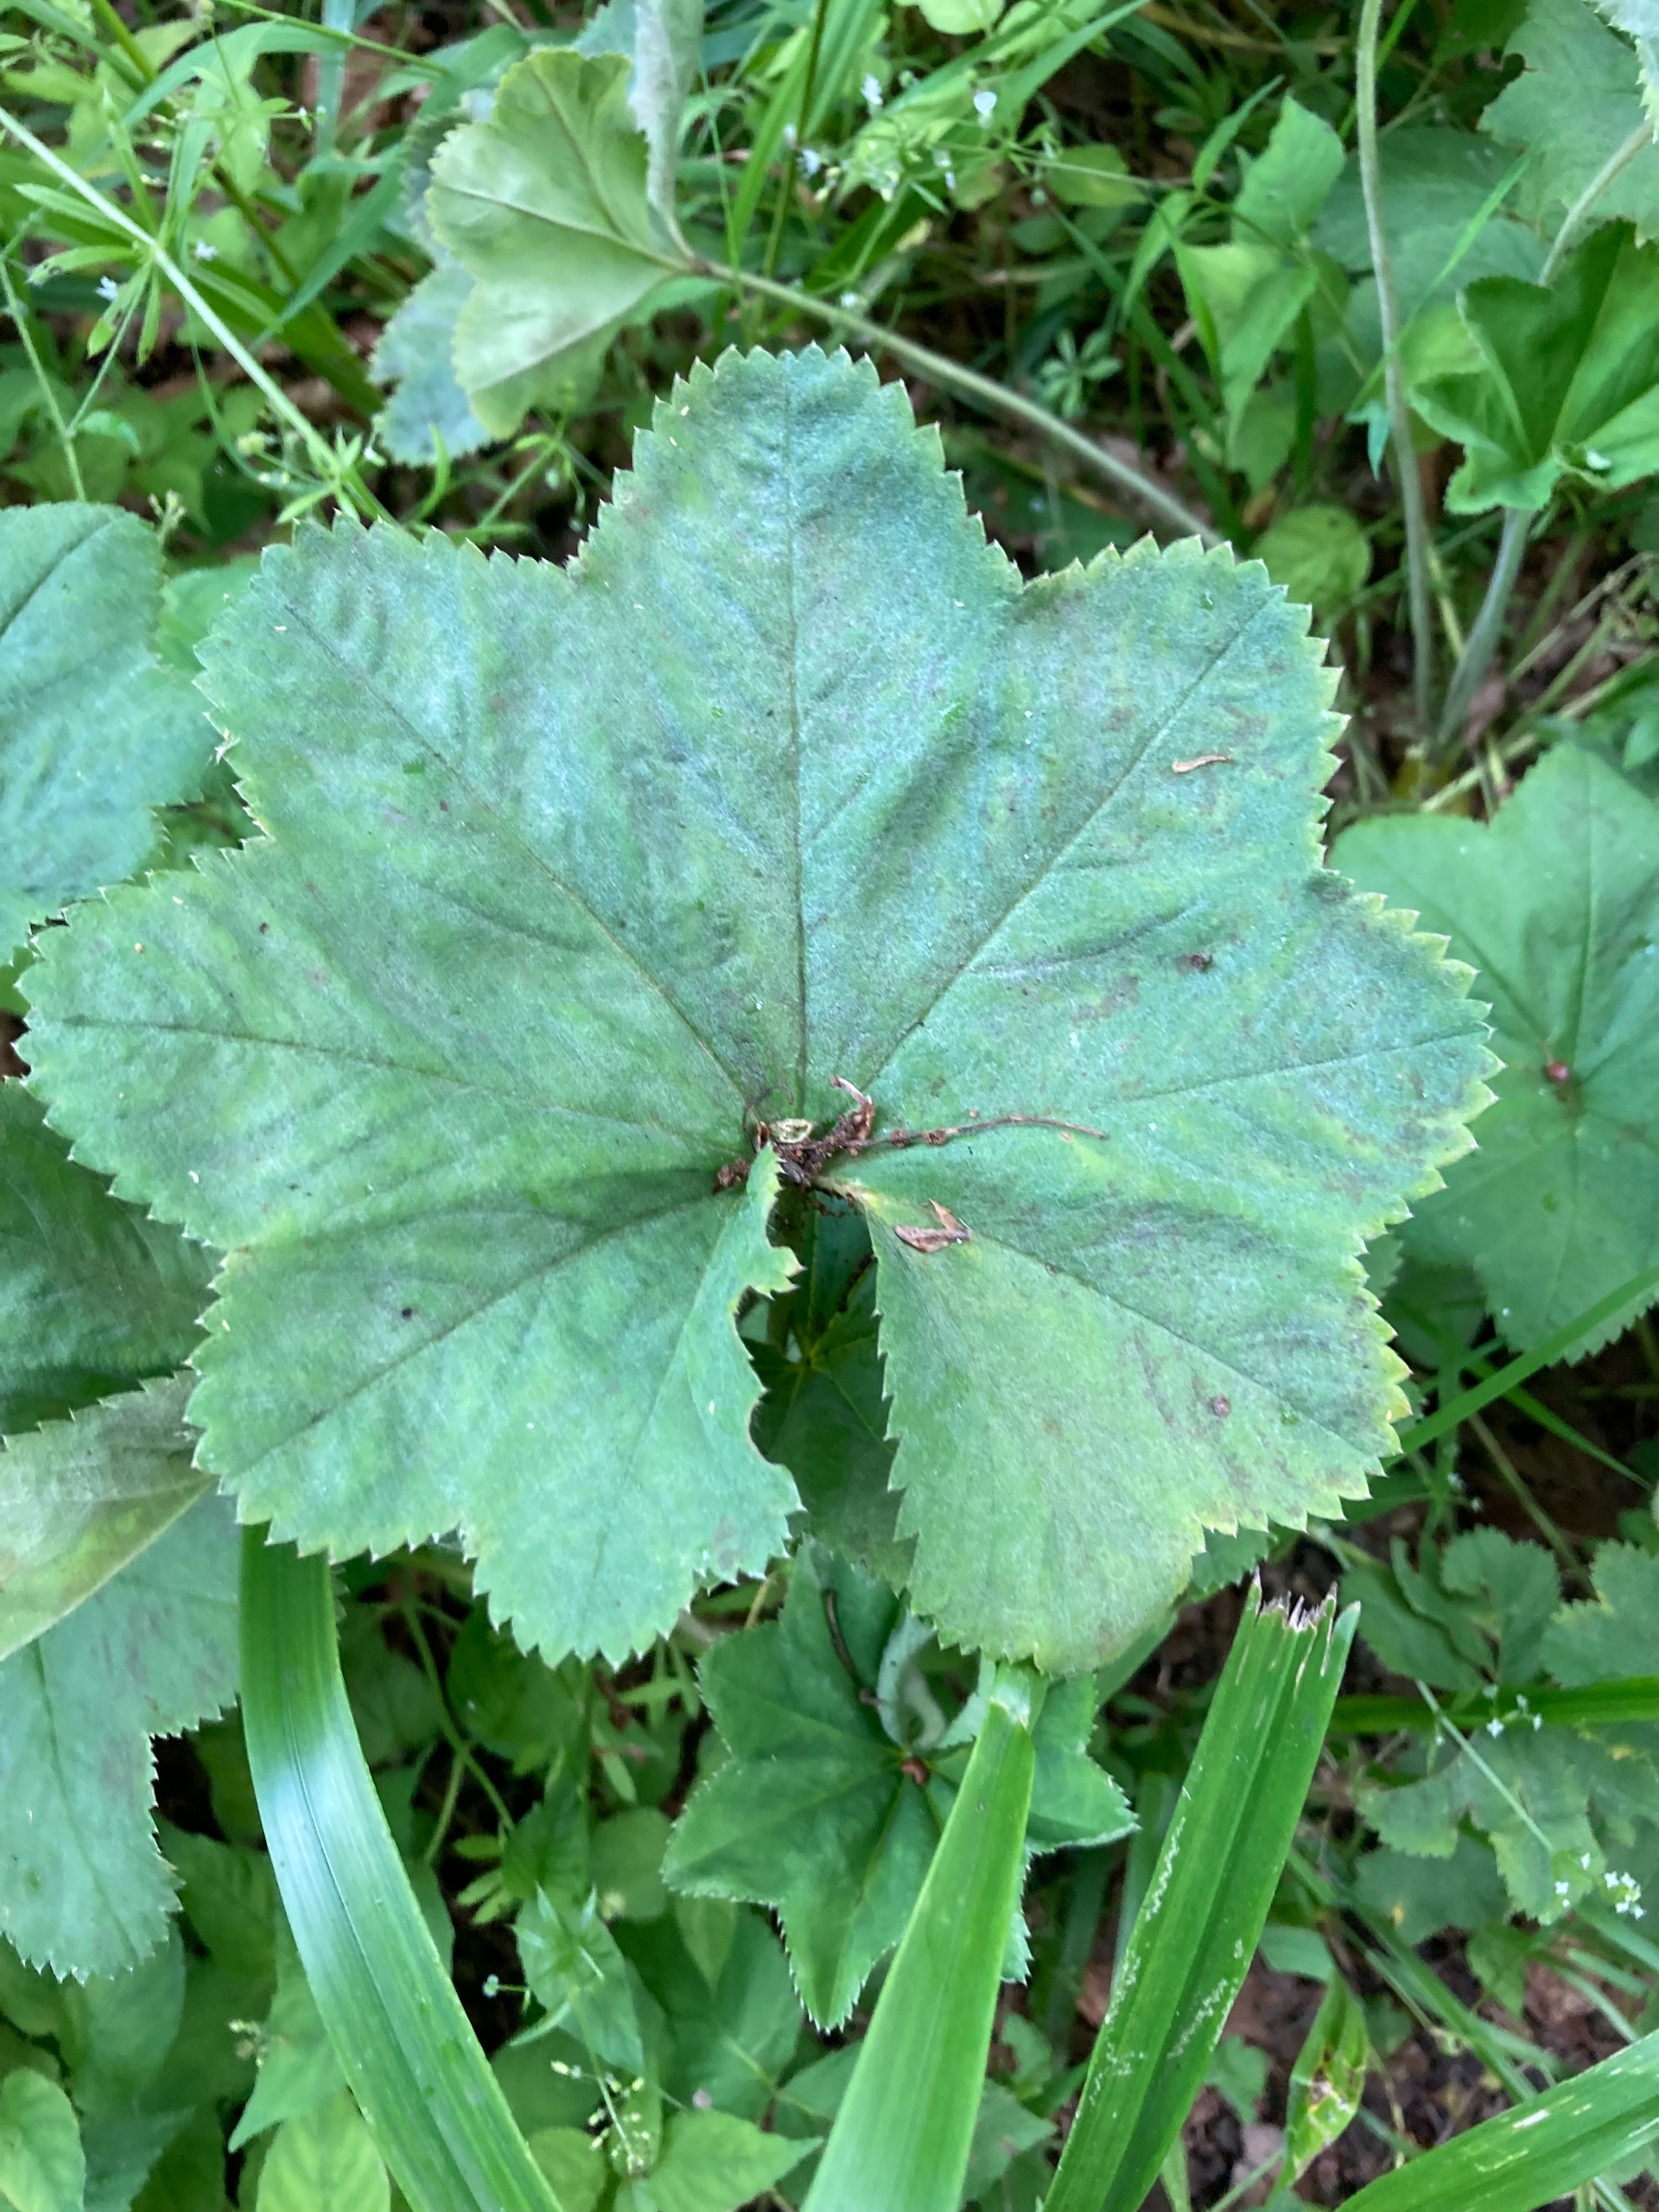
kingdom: Plantae
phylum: Tracheophyta
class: Magnoliopsida
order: Rosales
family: Rosaceae
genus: Alchemilla
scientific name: Alchemilla
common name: Løvefodslægten
